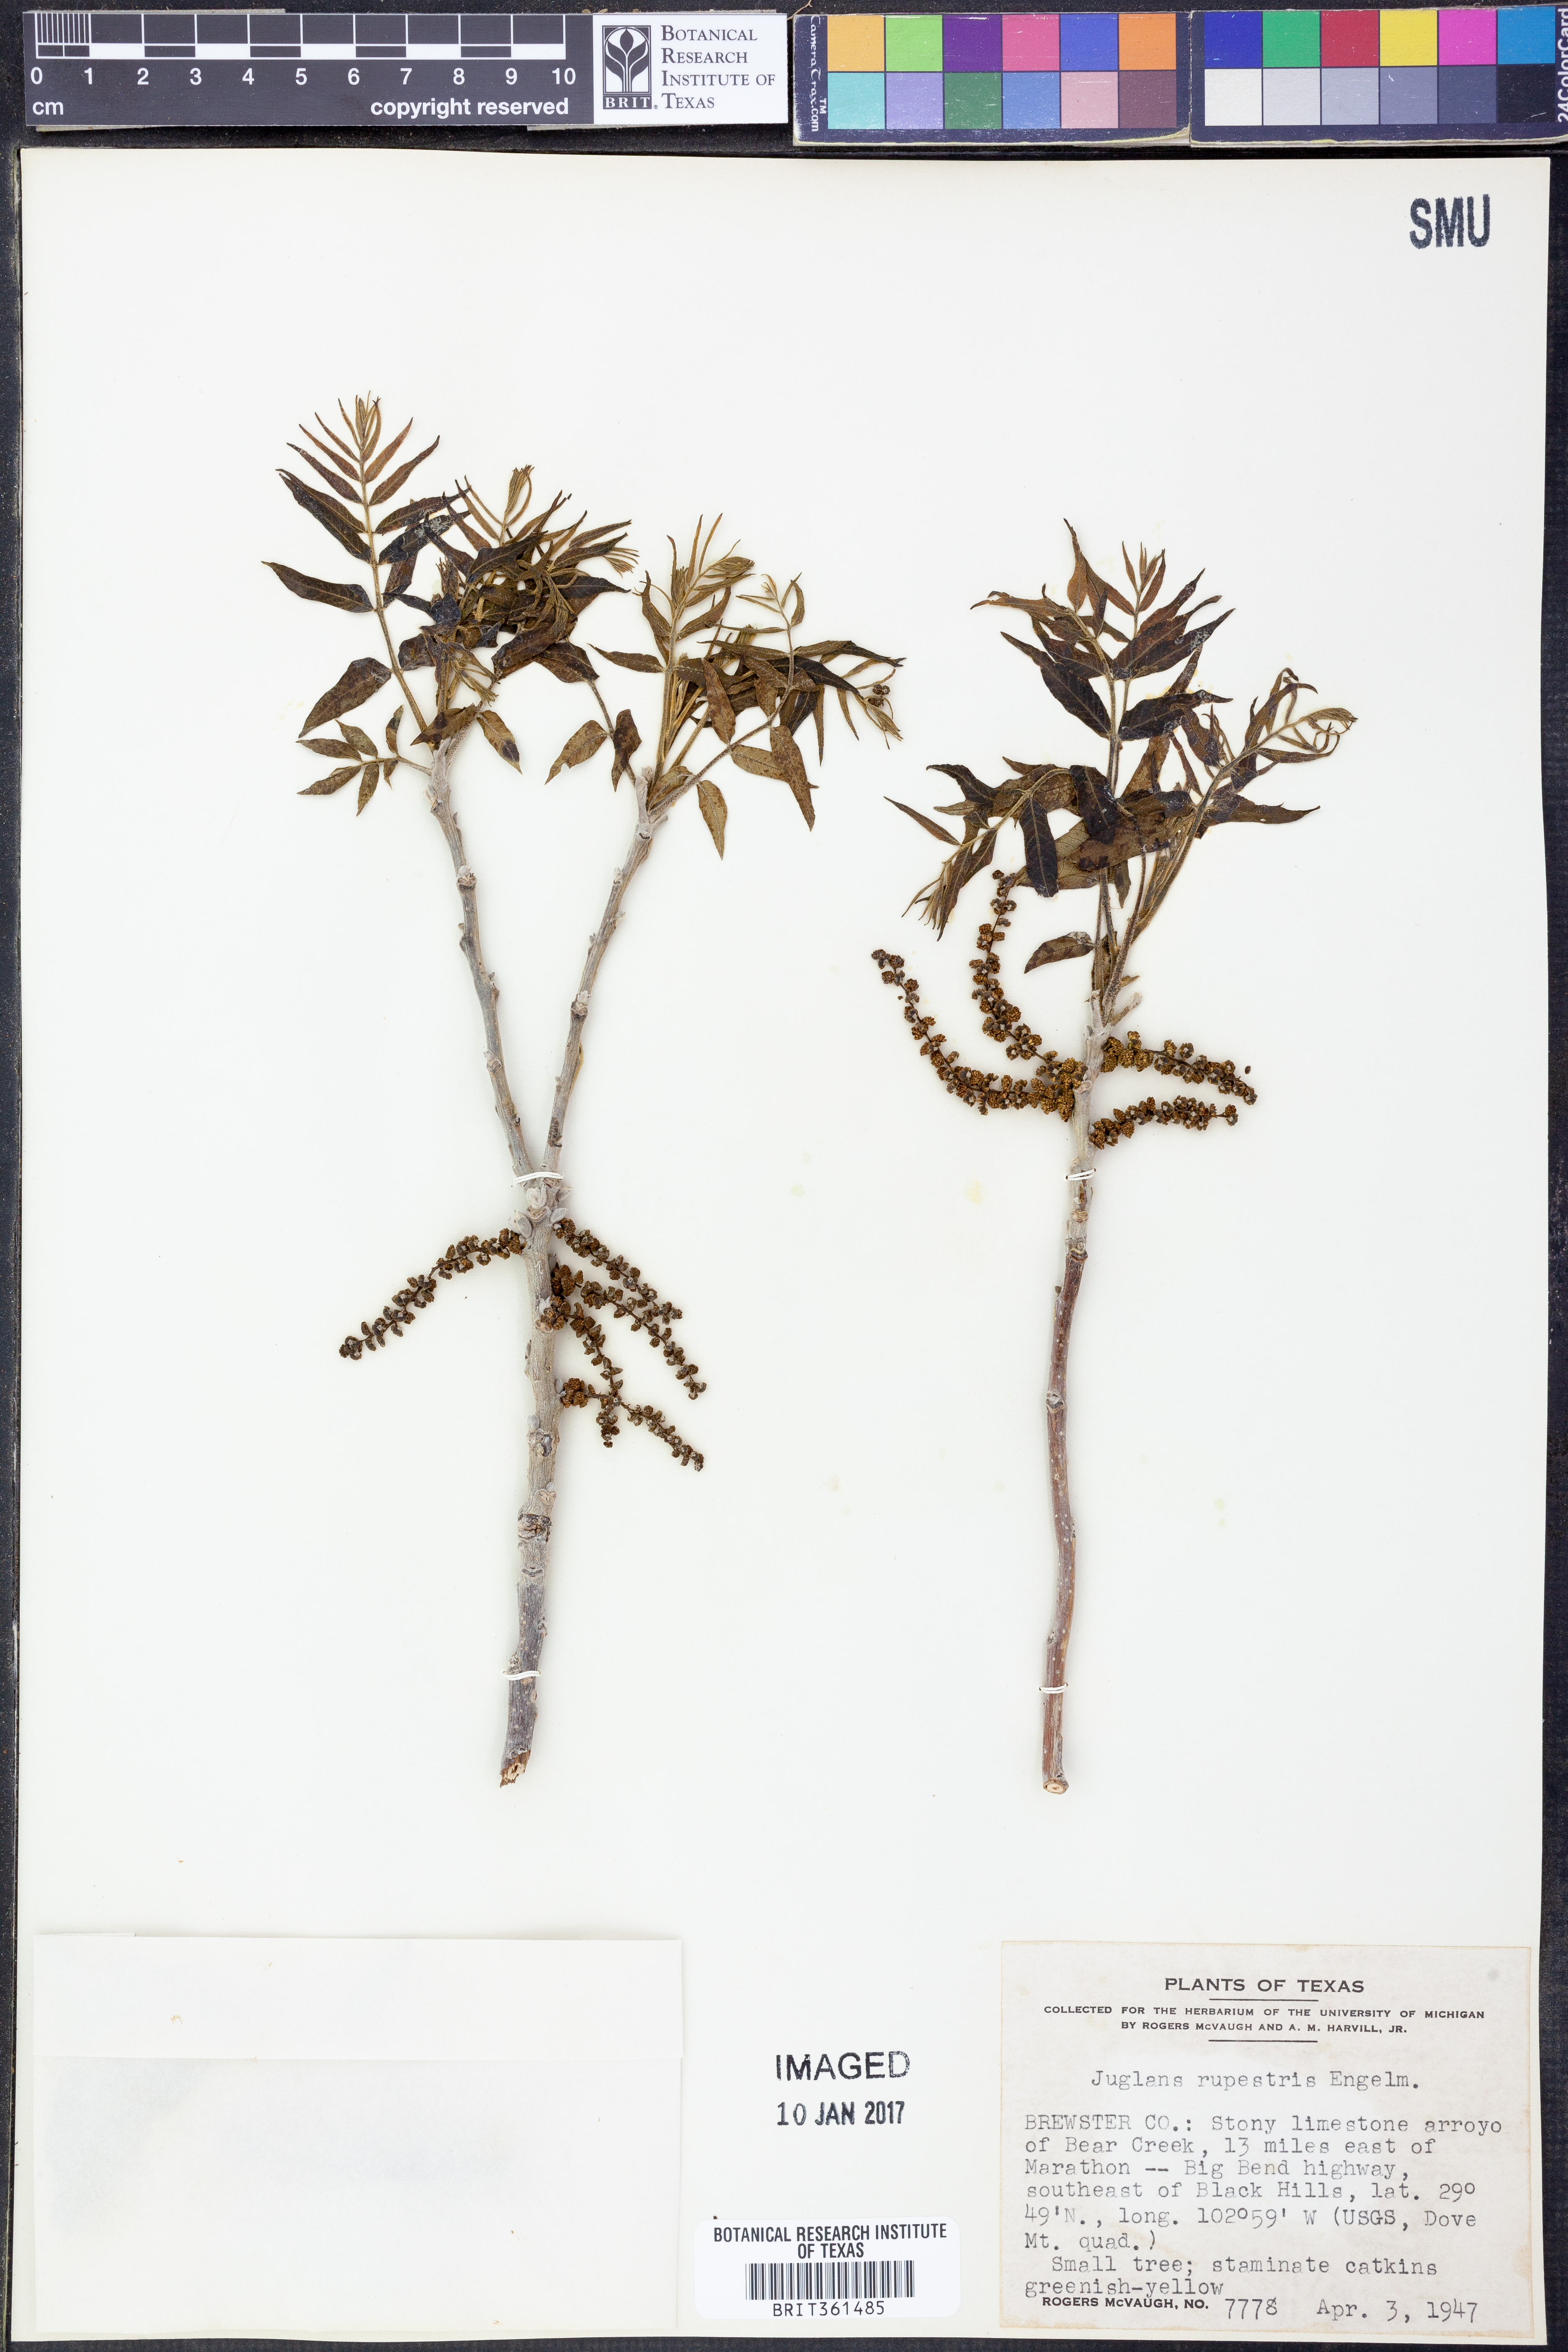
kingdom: Plantae
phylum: Tracheophyta
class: Magnoliopsida
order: Fagales
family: Juglandaceae
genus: Juglans
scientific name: Juglans microcarpa
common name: Texas walnut
